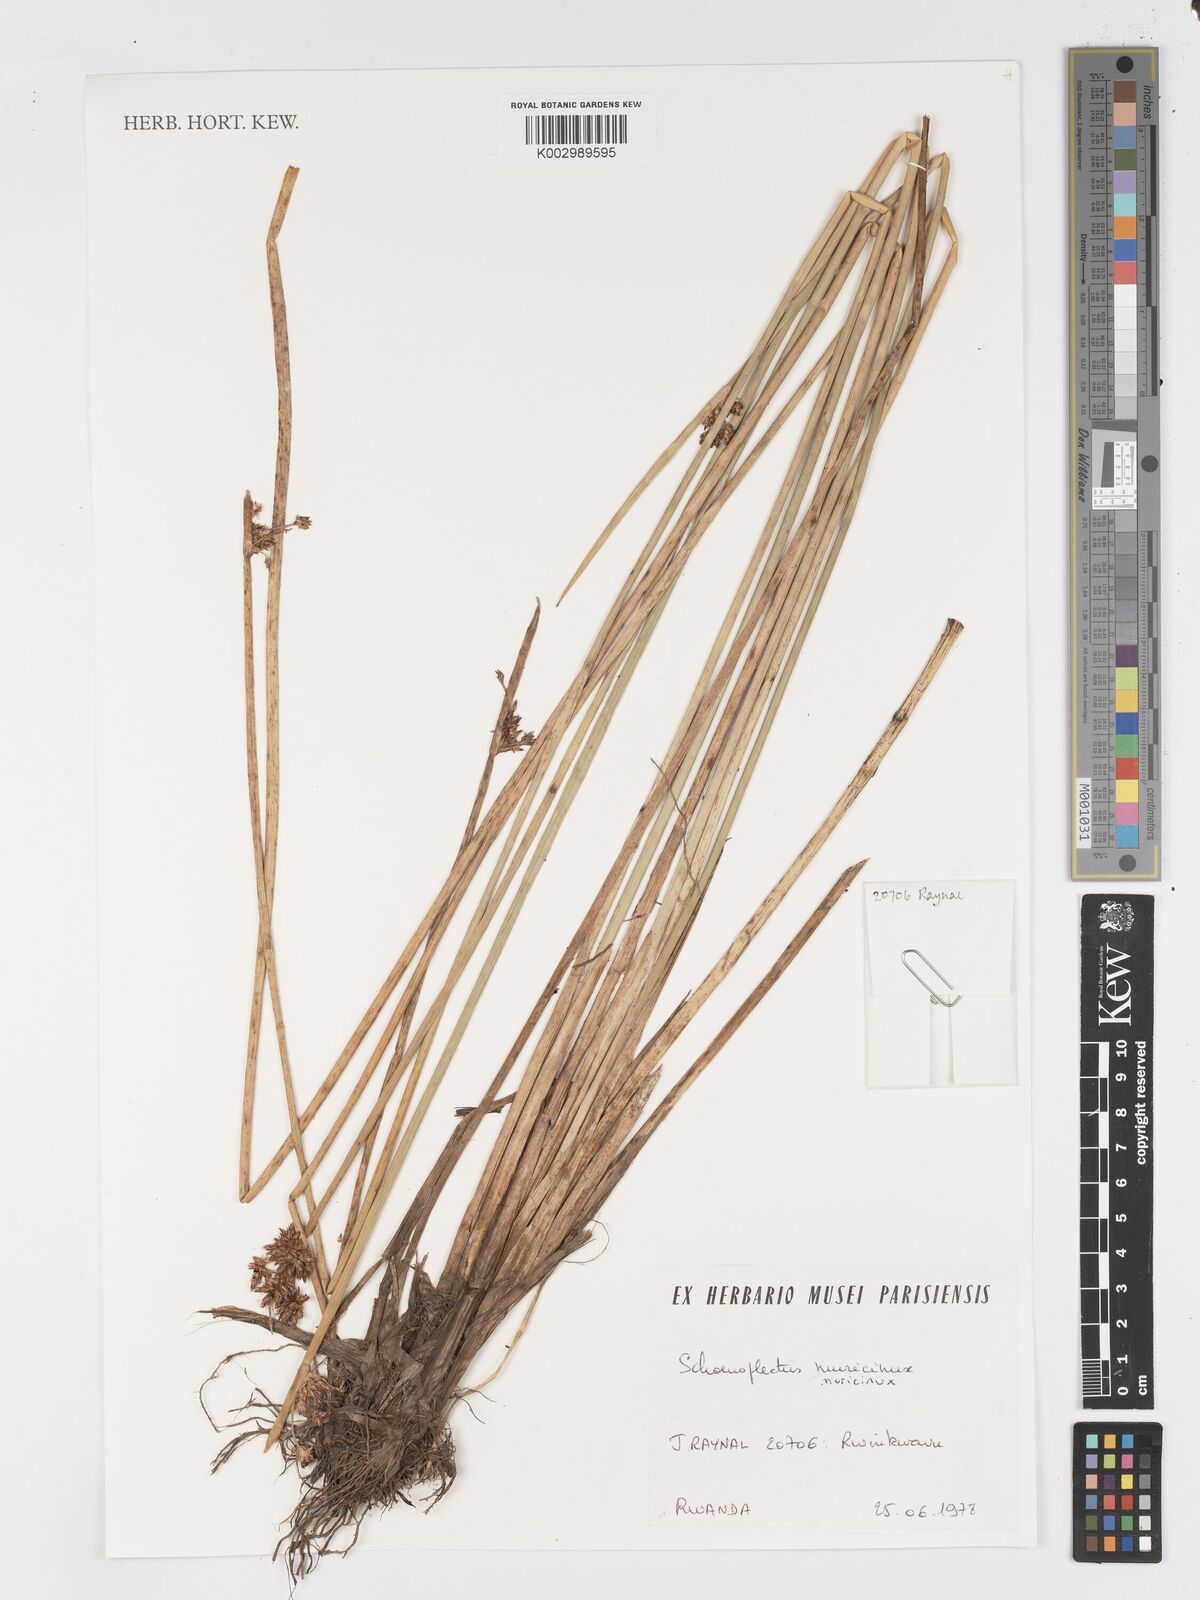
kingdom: Plantae
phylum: Tracheophyta
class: Liliopsida
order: Poales
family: Cyperaceae
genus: Schoenoplectiella
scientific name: Schoenoplectiella muricinux
